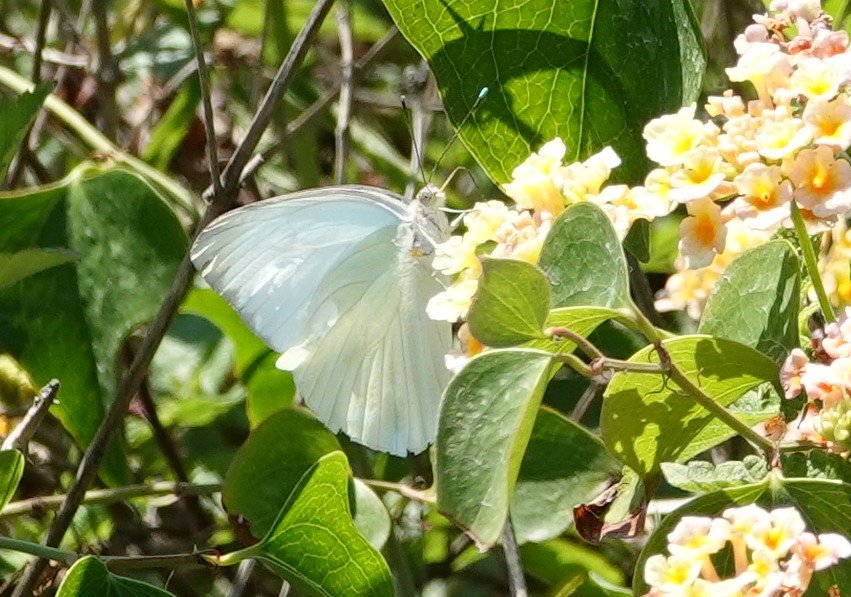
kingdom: Animalia
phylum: Arthropoda
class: Insecta
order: Lepidoptera
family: Pieridae
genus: Ascia
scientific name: Ascia monuste
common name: Great Southern White
